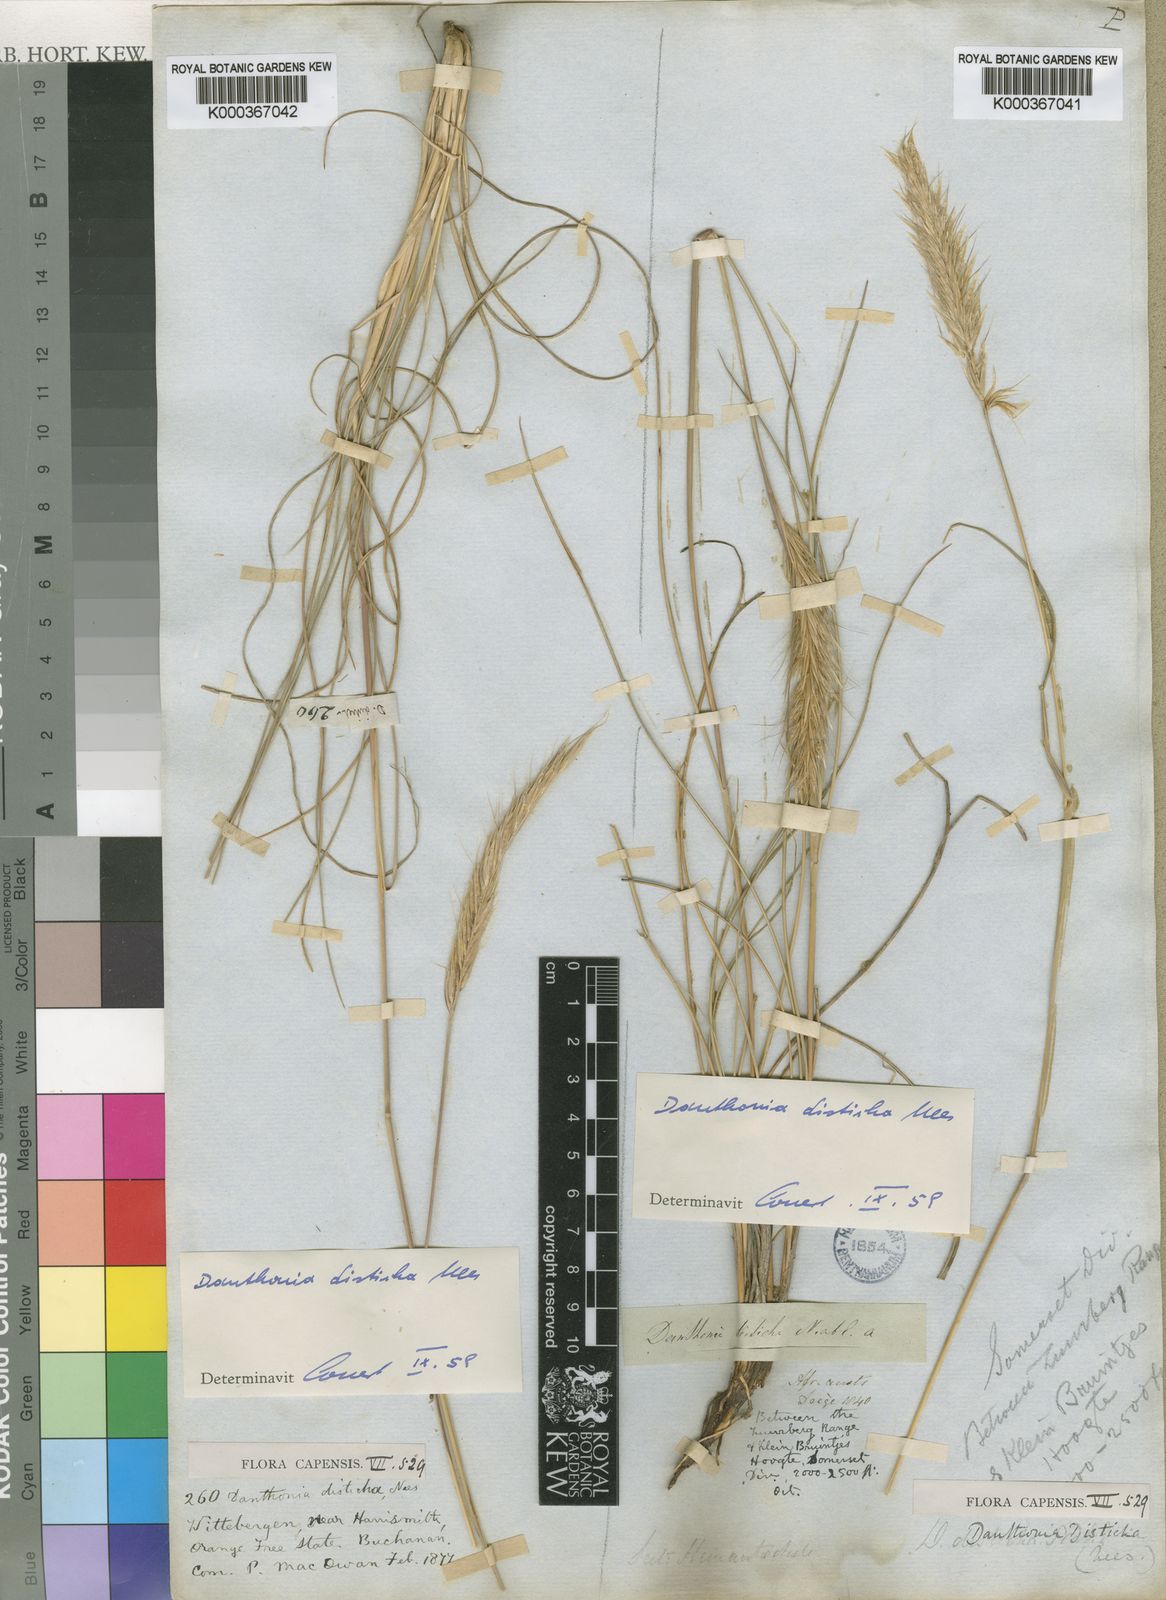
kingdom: Plantae
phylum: Tracheophyta
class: Liliopsida
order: Poales
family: Poaceae
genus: Tenaxia
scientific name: Tenaxia disticha
